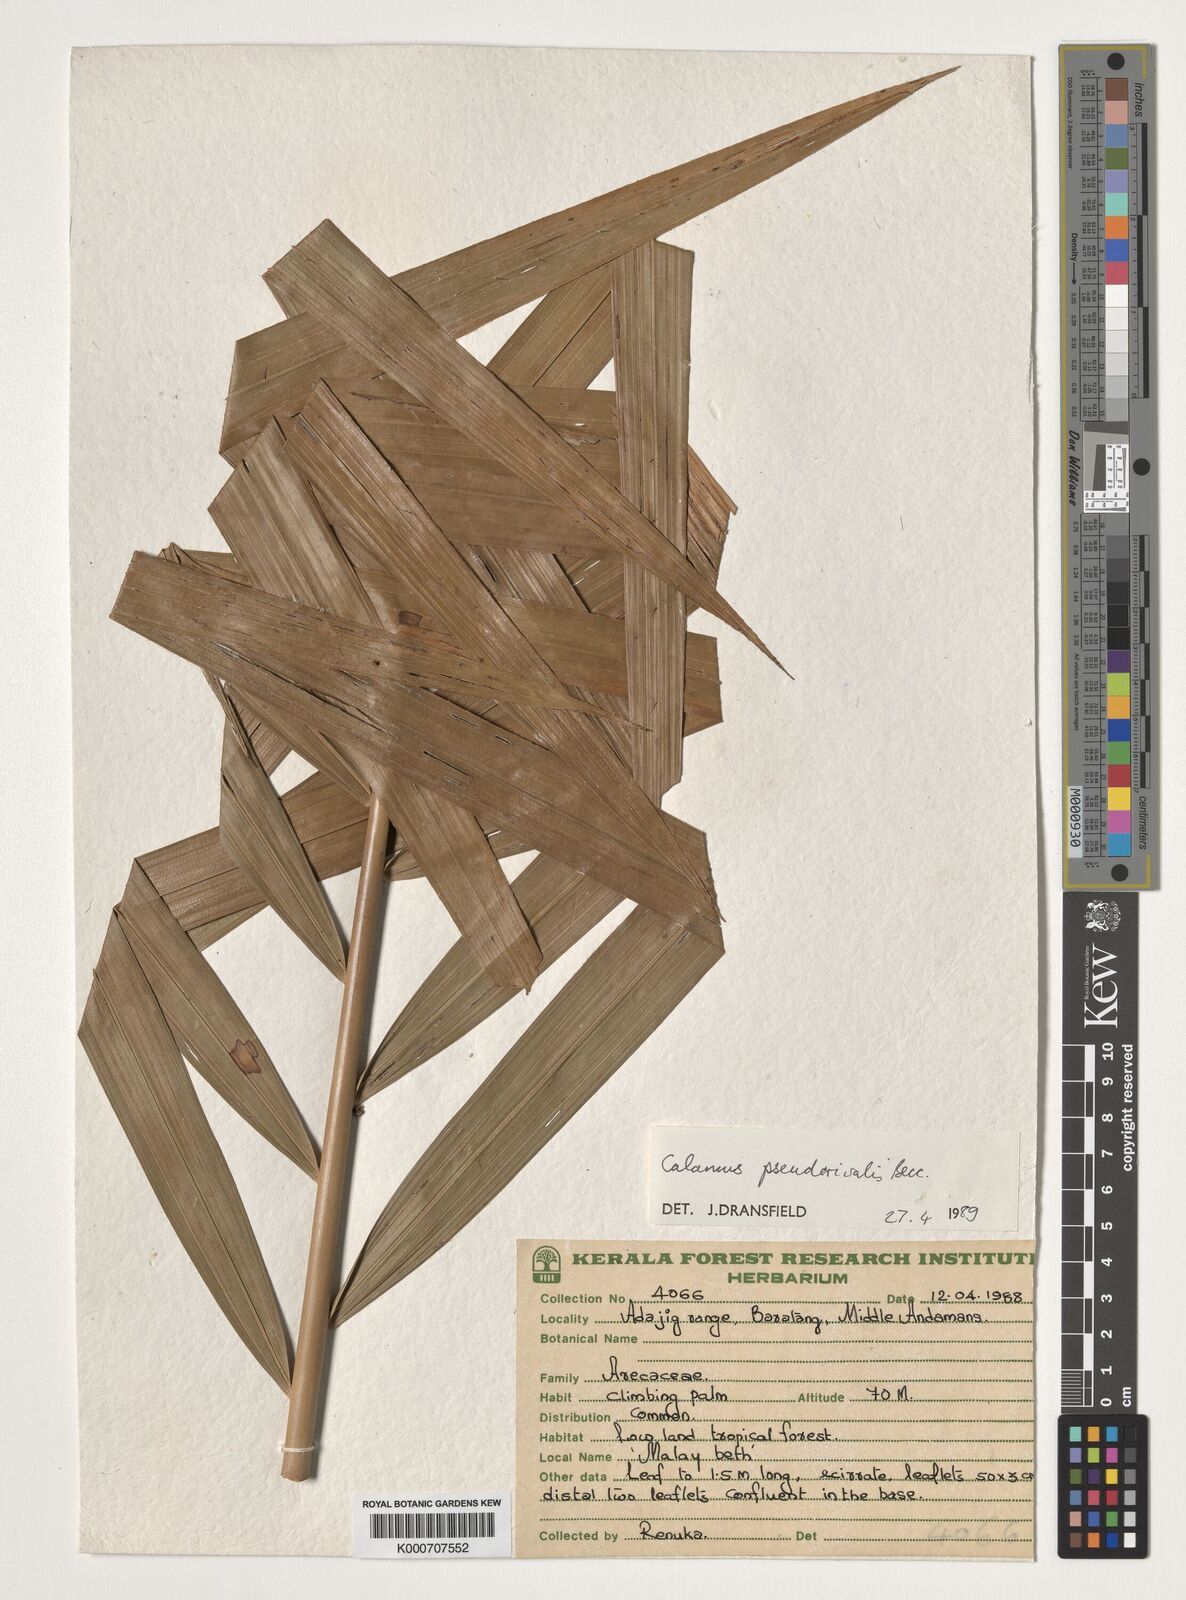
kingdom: Plantae
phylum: Tracheophyta
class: Liliopsida
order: Arecales
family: Arecaceae
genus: Calamus
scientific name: Calamus nicobaricus
